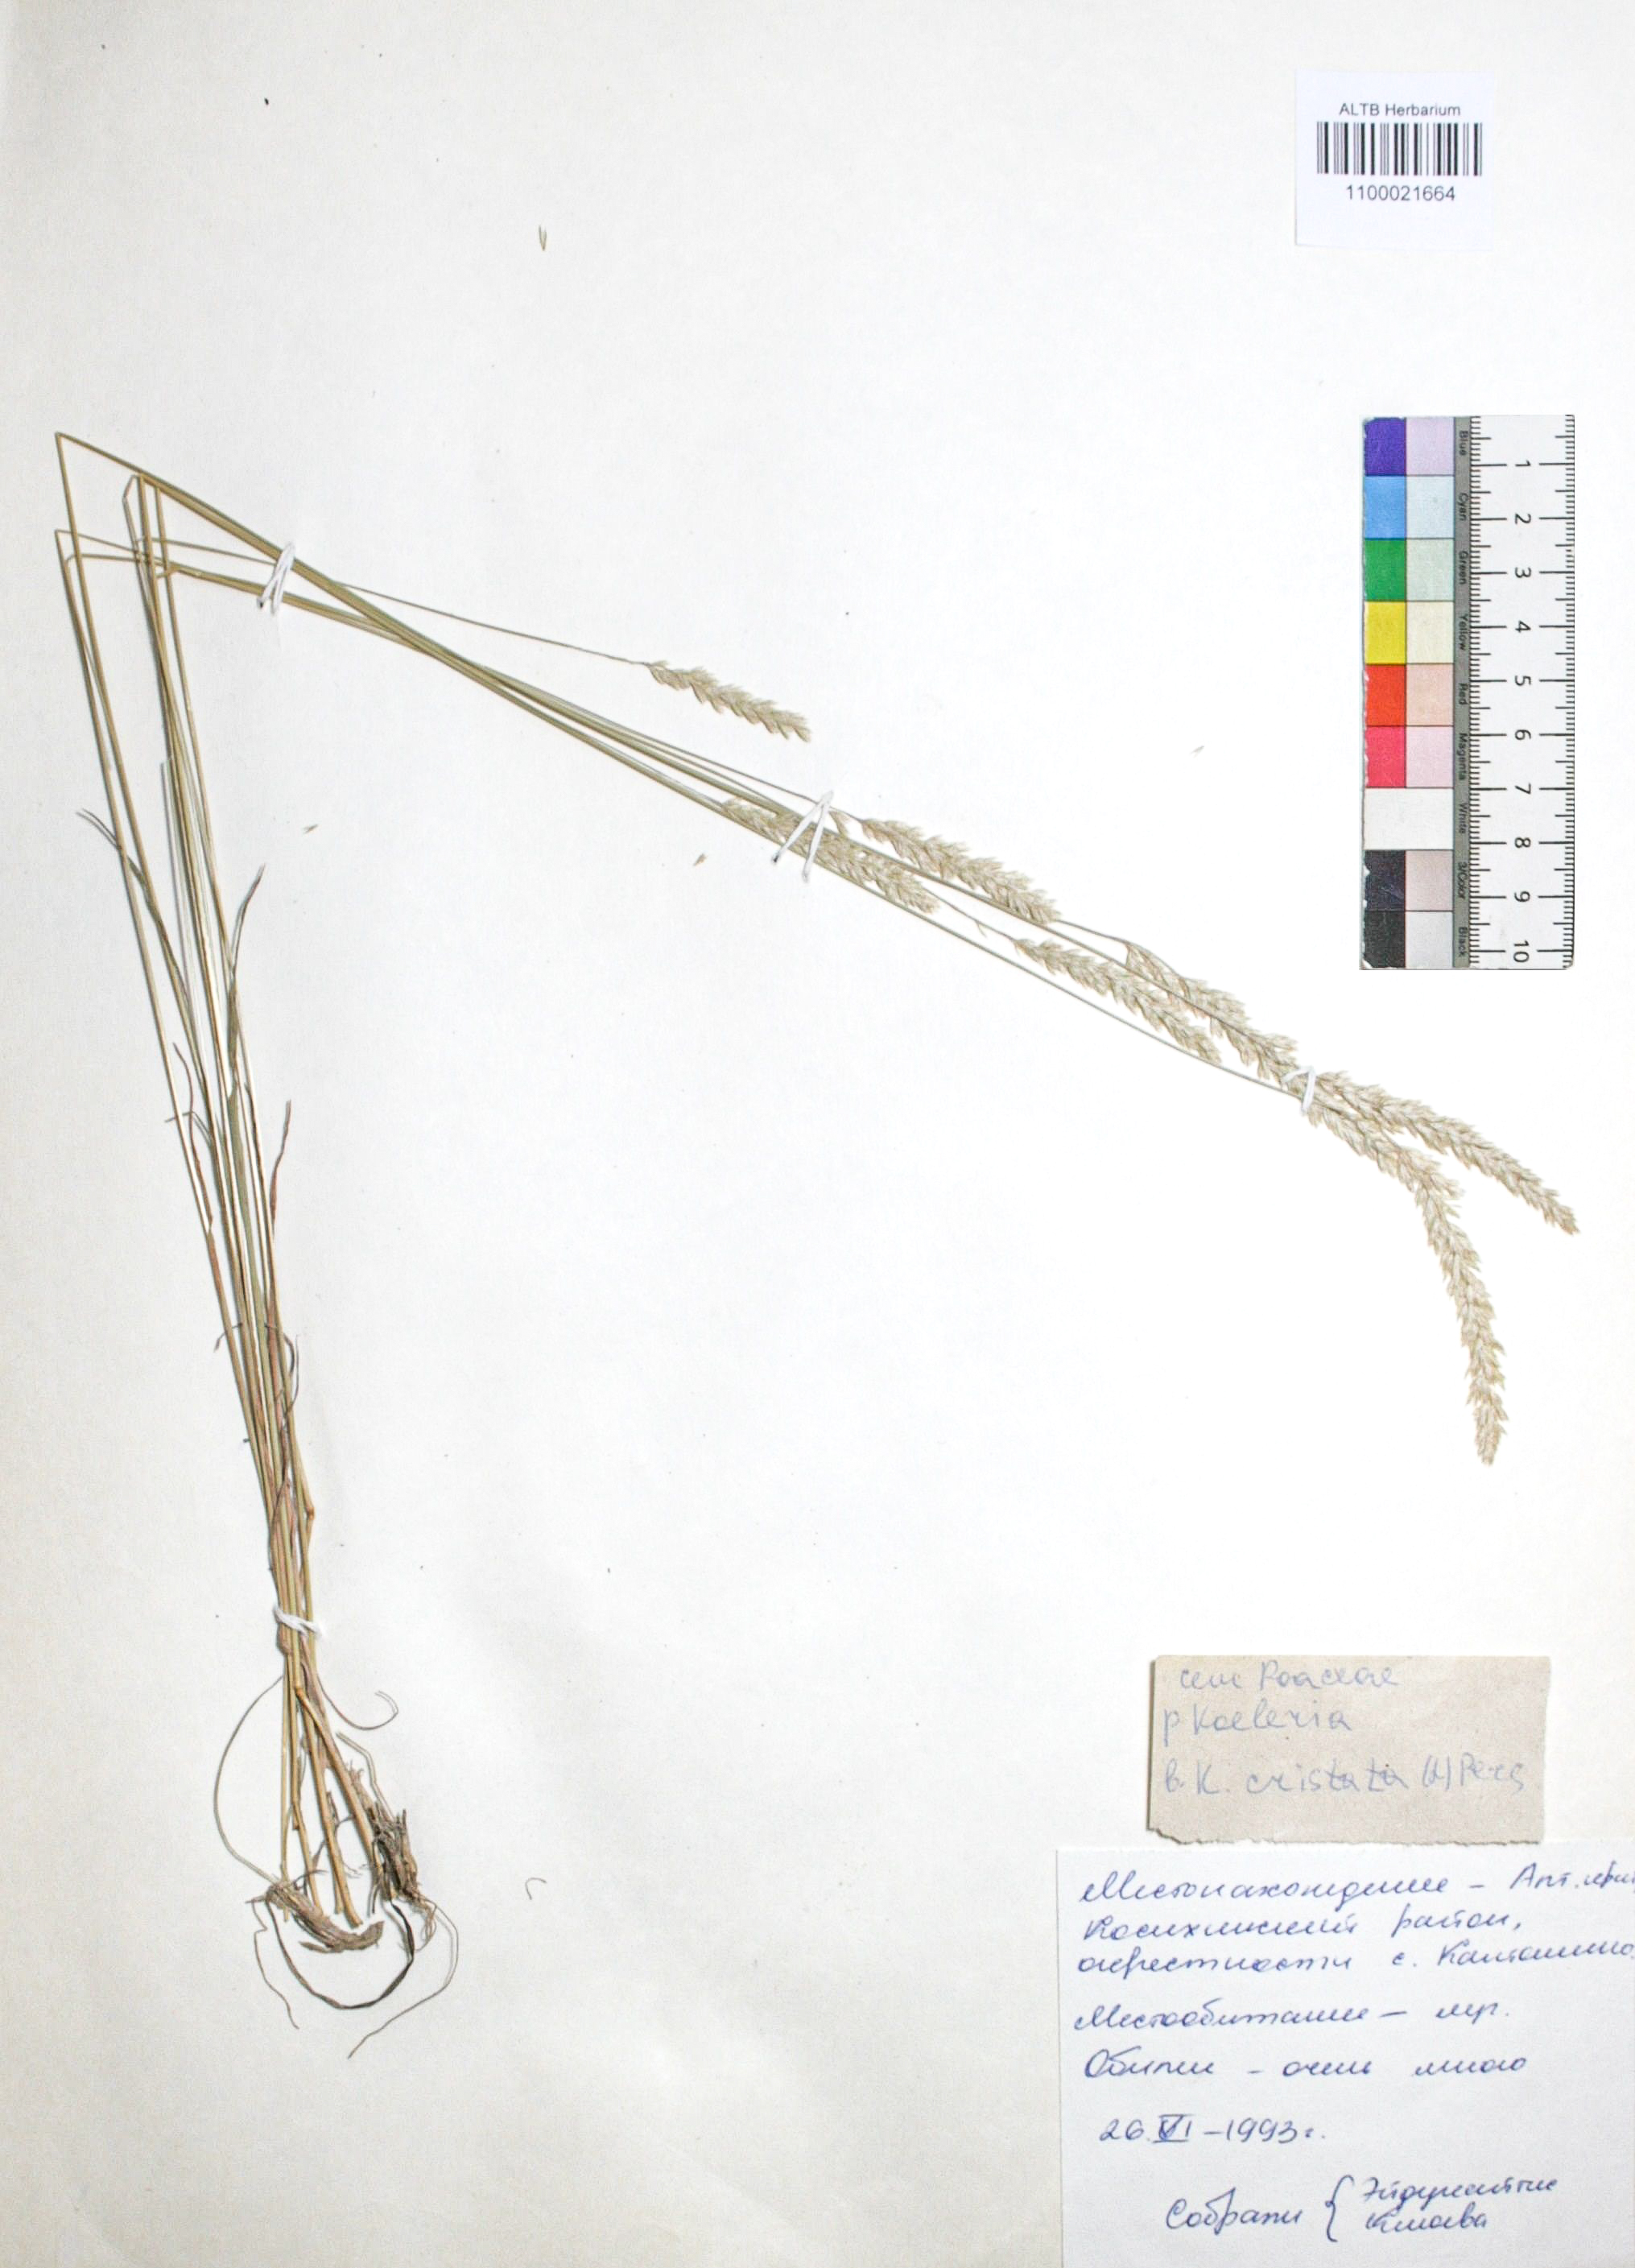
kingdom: Plantae
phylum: Tracheophyta
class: Liliopsida
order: Poales
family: Poaceae
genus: Koeleria
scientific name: Koeleria pyramidata
